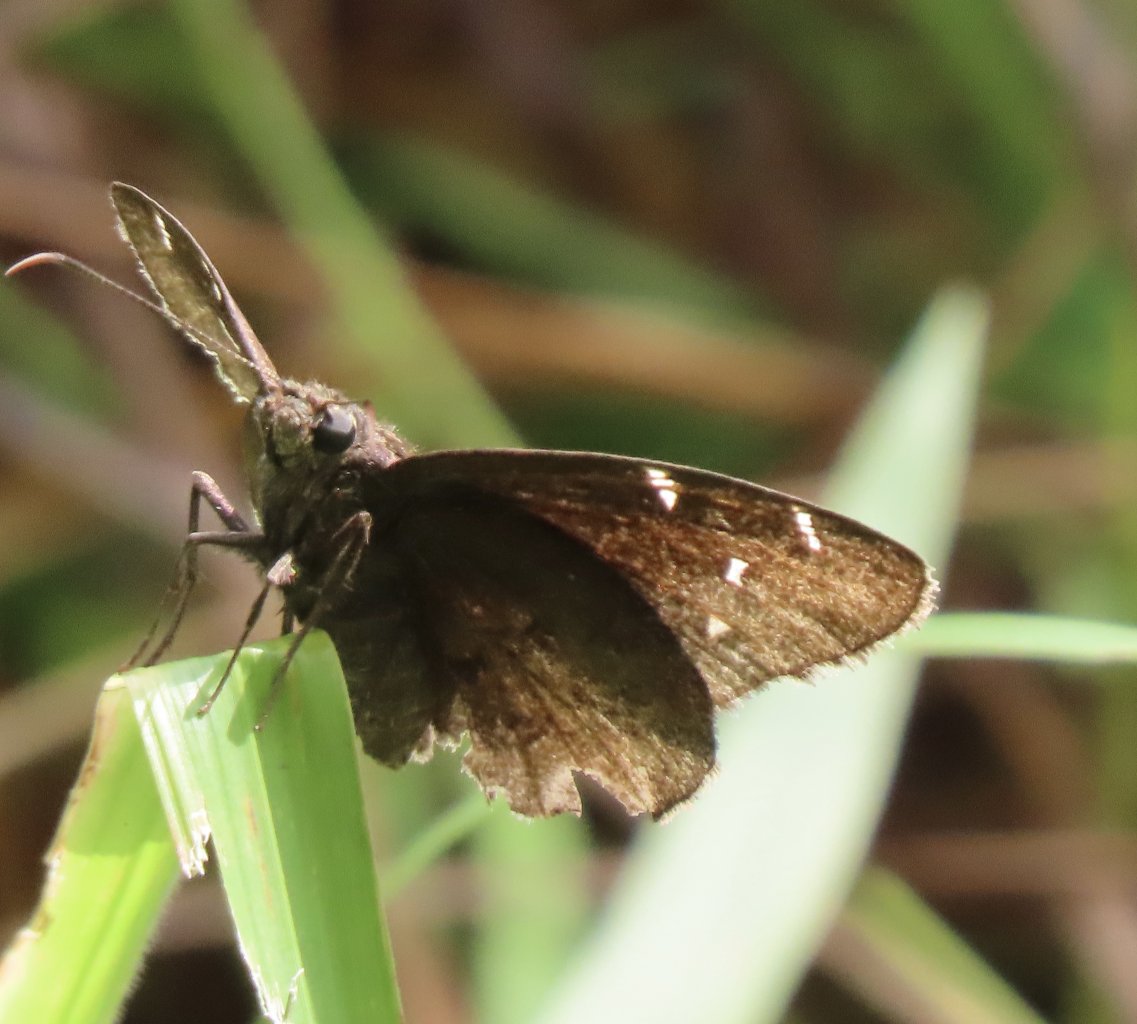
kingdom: Animalia
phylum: Arthropoda
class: Insecta
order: Lepidoptera
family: Hesperiidae
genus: Autochton
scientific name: Autochton
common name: Northern Cloudywing
